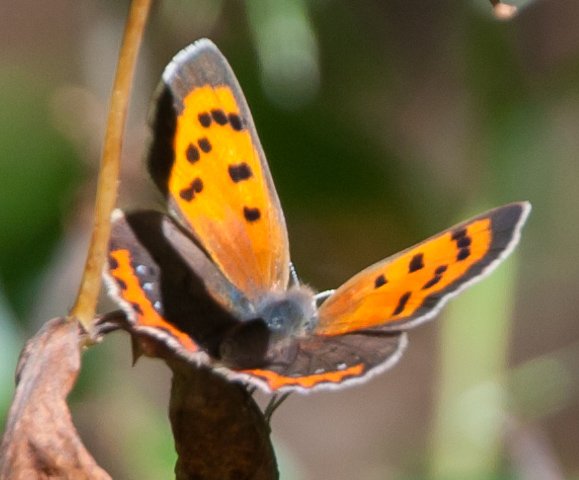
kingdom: Animalia
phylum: Arthropoda
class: Insecta
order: Lepidoptera
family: Lycaenidae
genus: Lycaena
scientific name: Lycaena phlaeas
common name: American Copper
